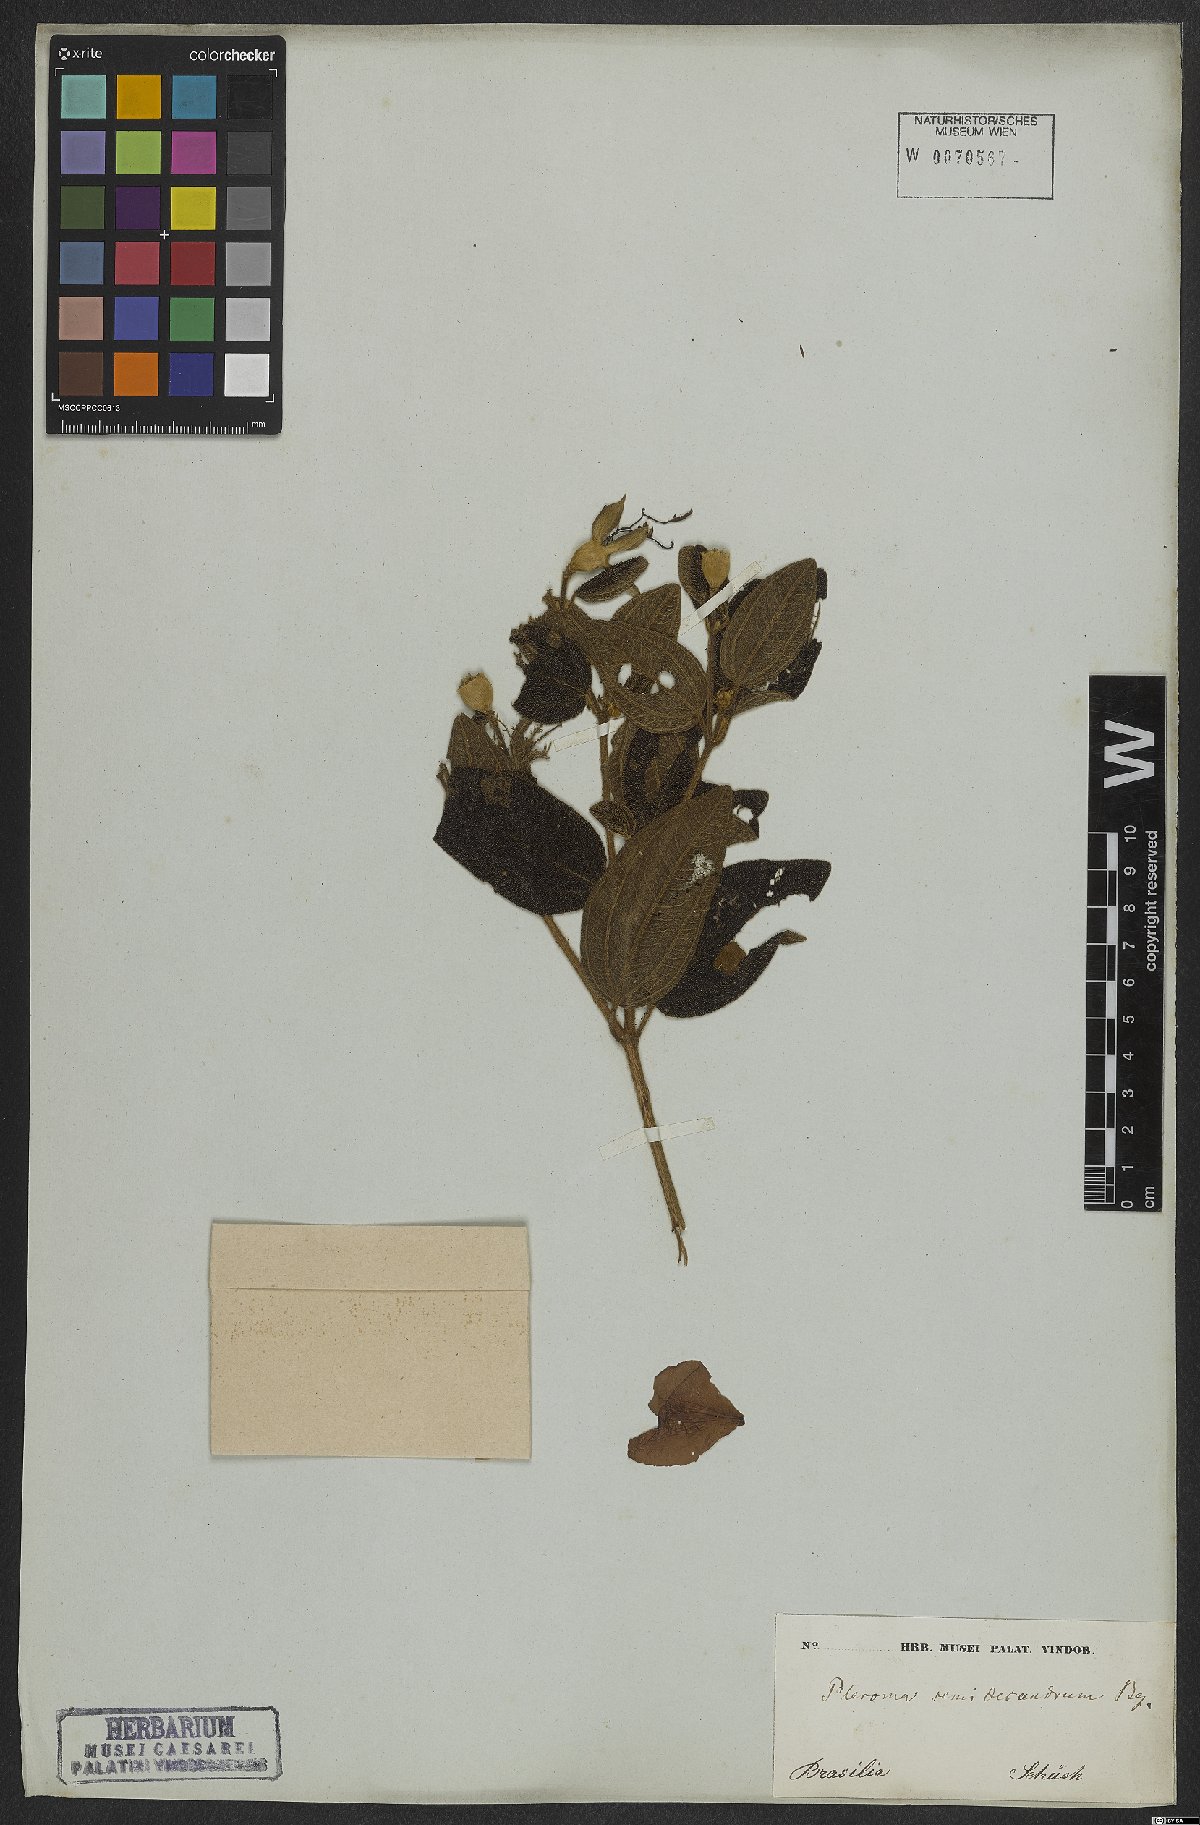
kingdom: Plantae
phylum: Tracheophyta
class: Magnoliopsida
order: Myrtales
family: Melastomataceae
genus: Pleroma
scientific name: Pleroma semidecandrum
